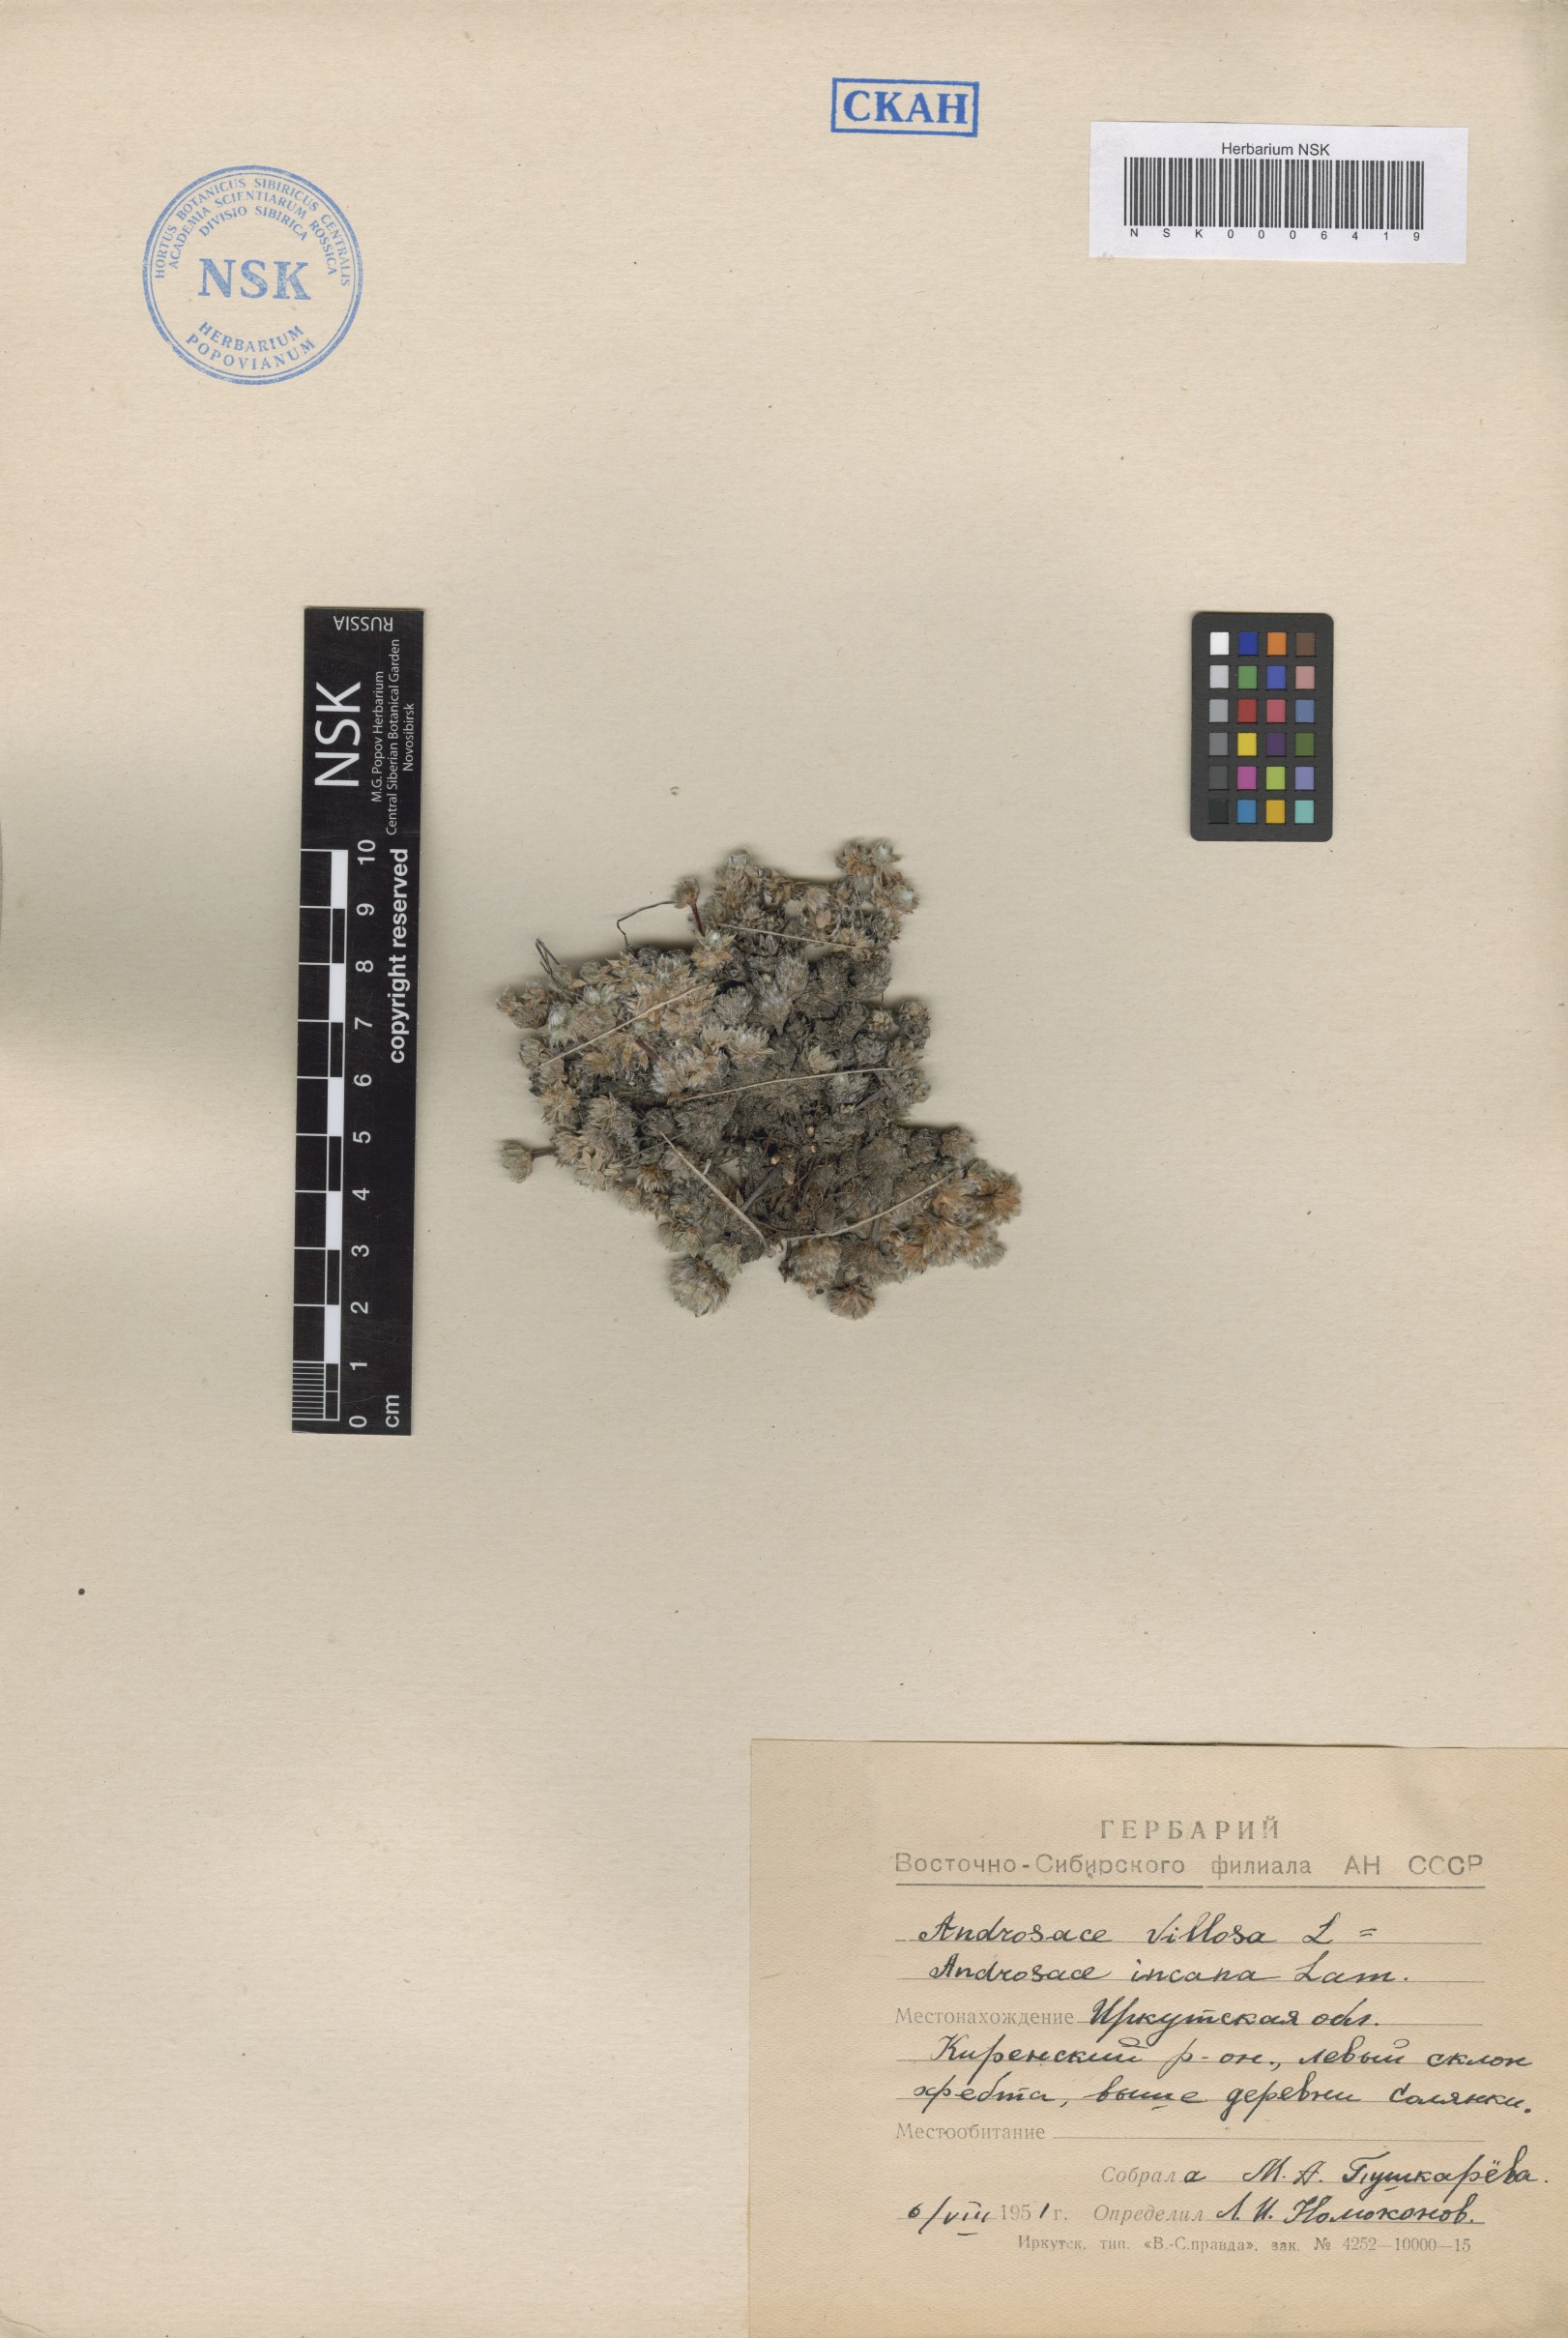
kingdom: Plantae
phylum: Tracheophyta
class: Magnoliopsida
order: Ericales
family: Primulaceae
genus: Androsace
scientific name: Androsace incana
